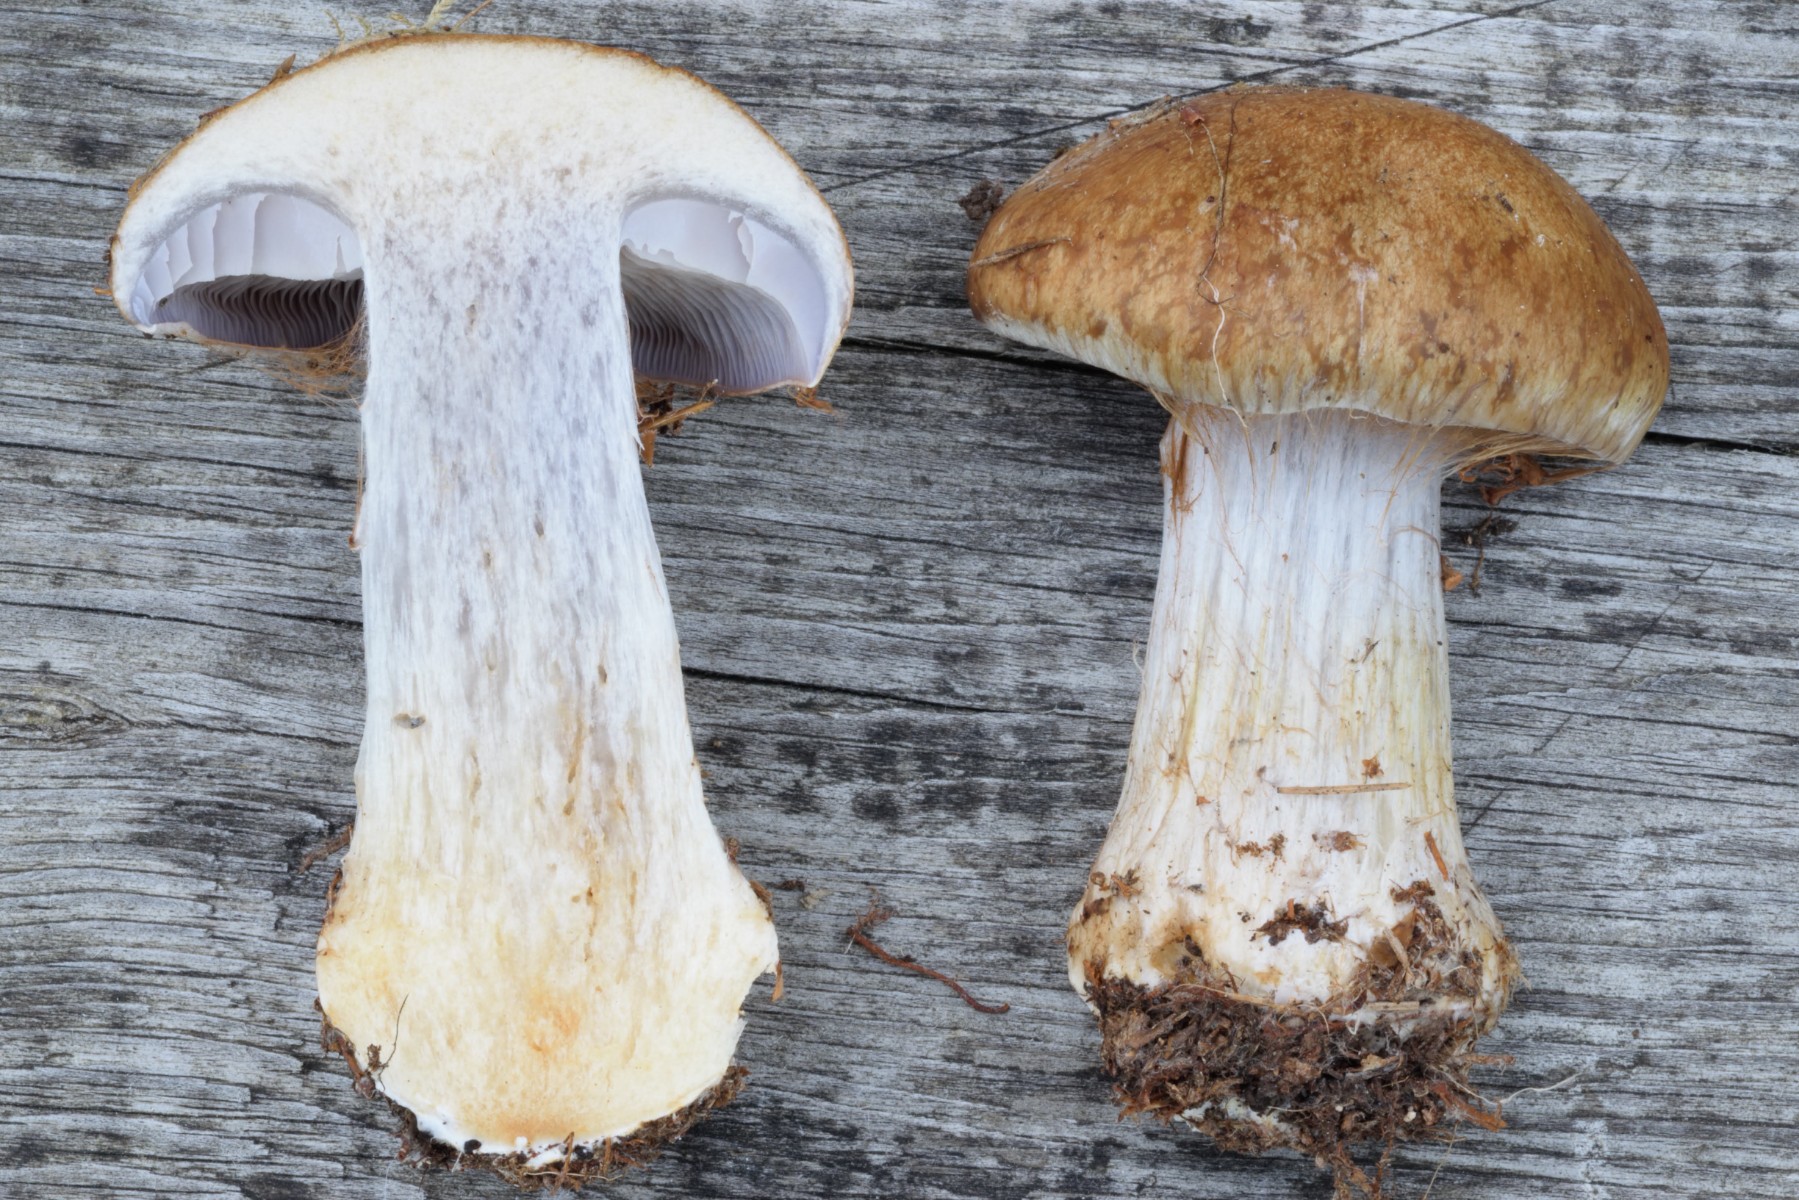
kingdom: Fungi
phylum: Basidiomycota
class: Agaricomycetes
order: Agaricales
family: Cortinariaceae
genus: Thaxterogaster
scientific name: Thaxterogaster riederi
